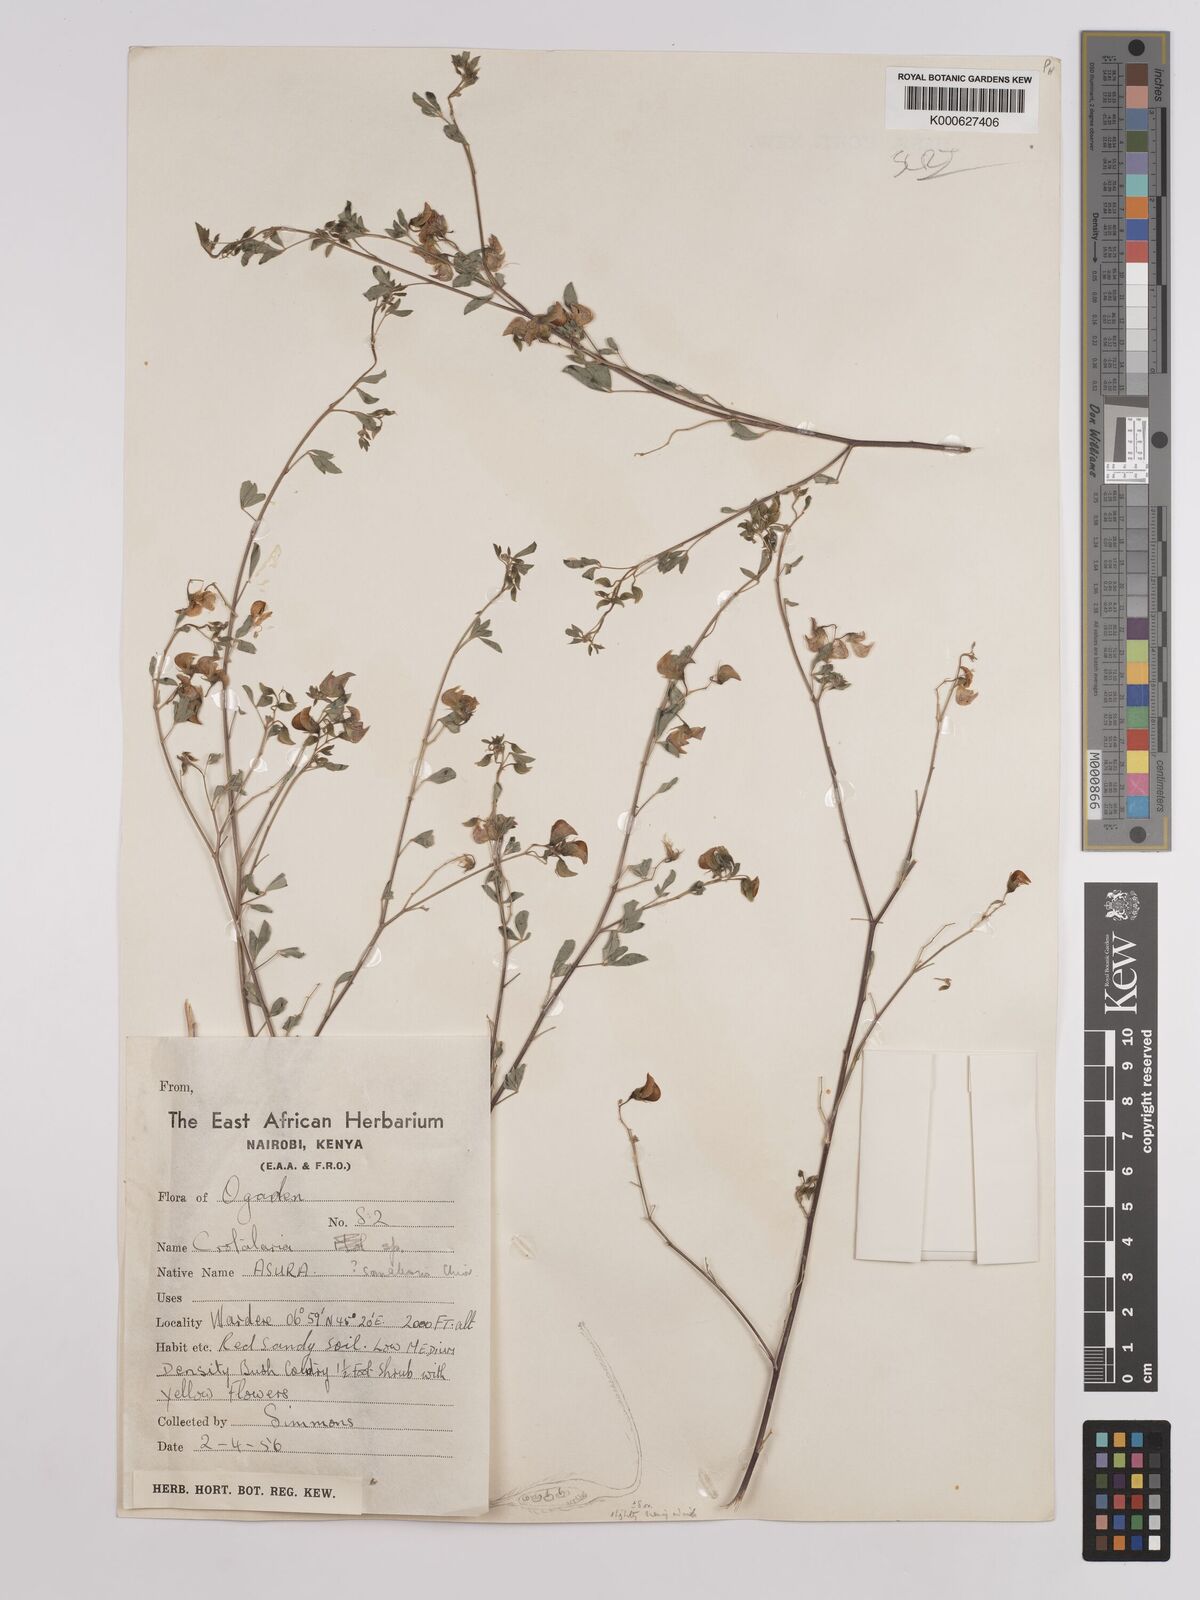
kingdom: Plantae
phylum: Tracheophyta
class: Magnoliopsida
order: Fabales
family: Fabaceae
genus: Crotalaria
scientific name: Crotalaria somalensis
